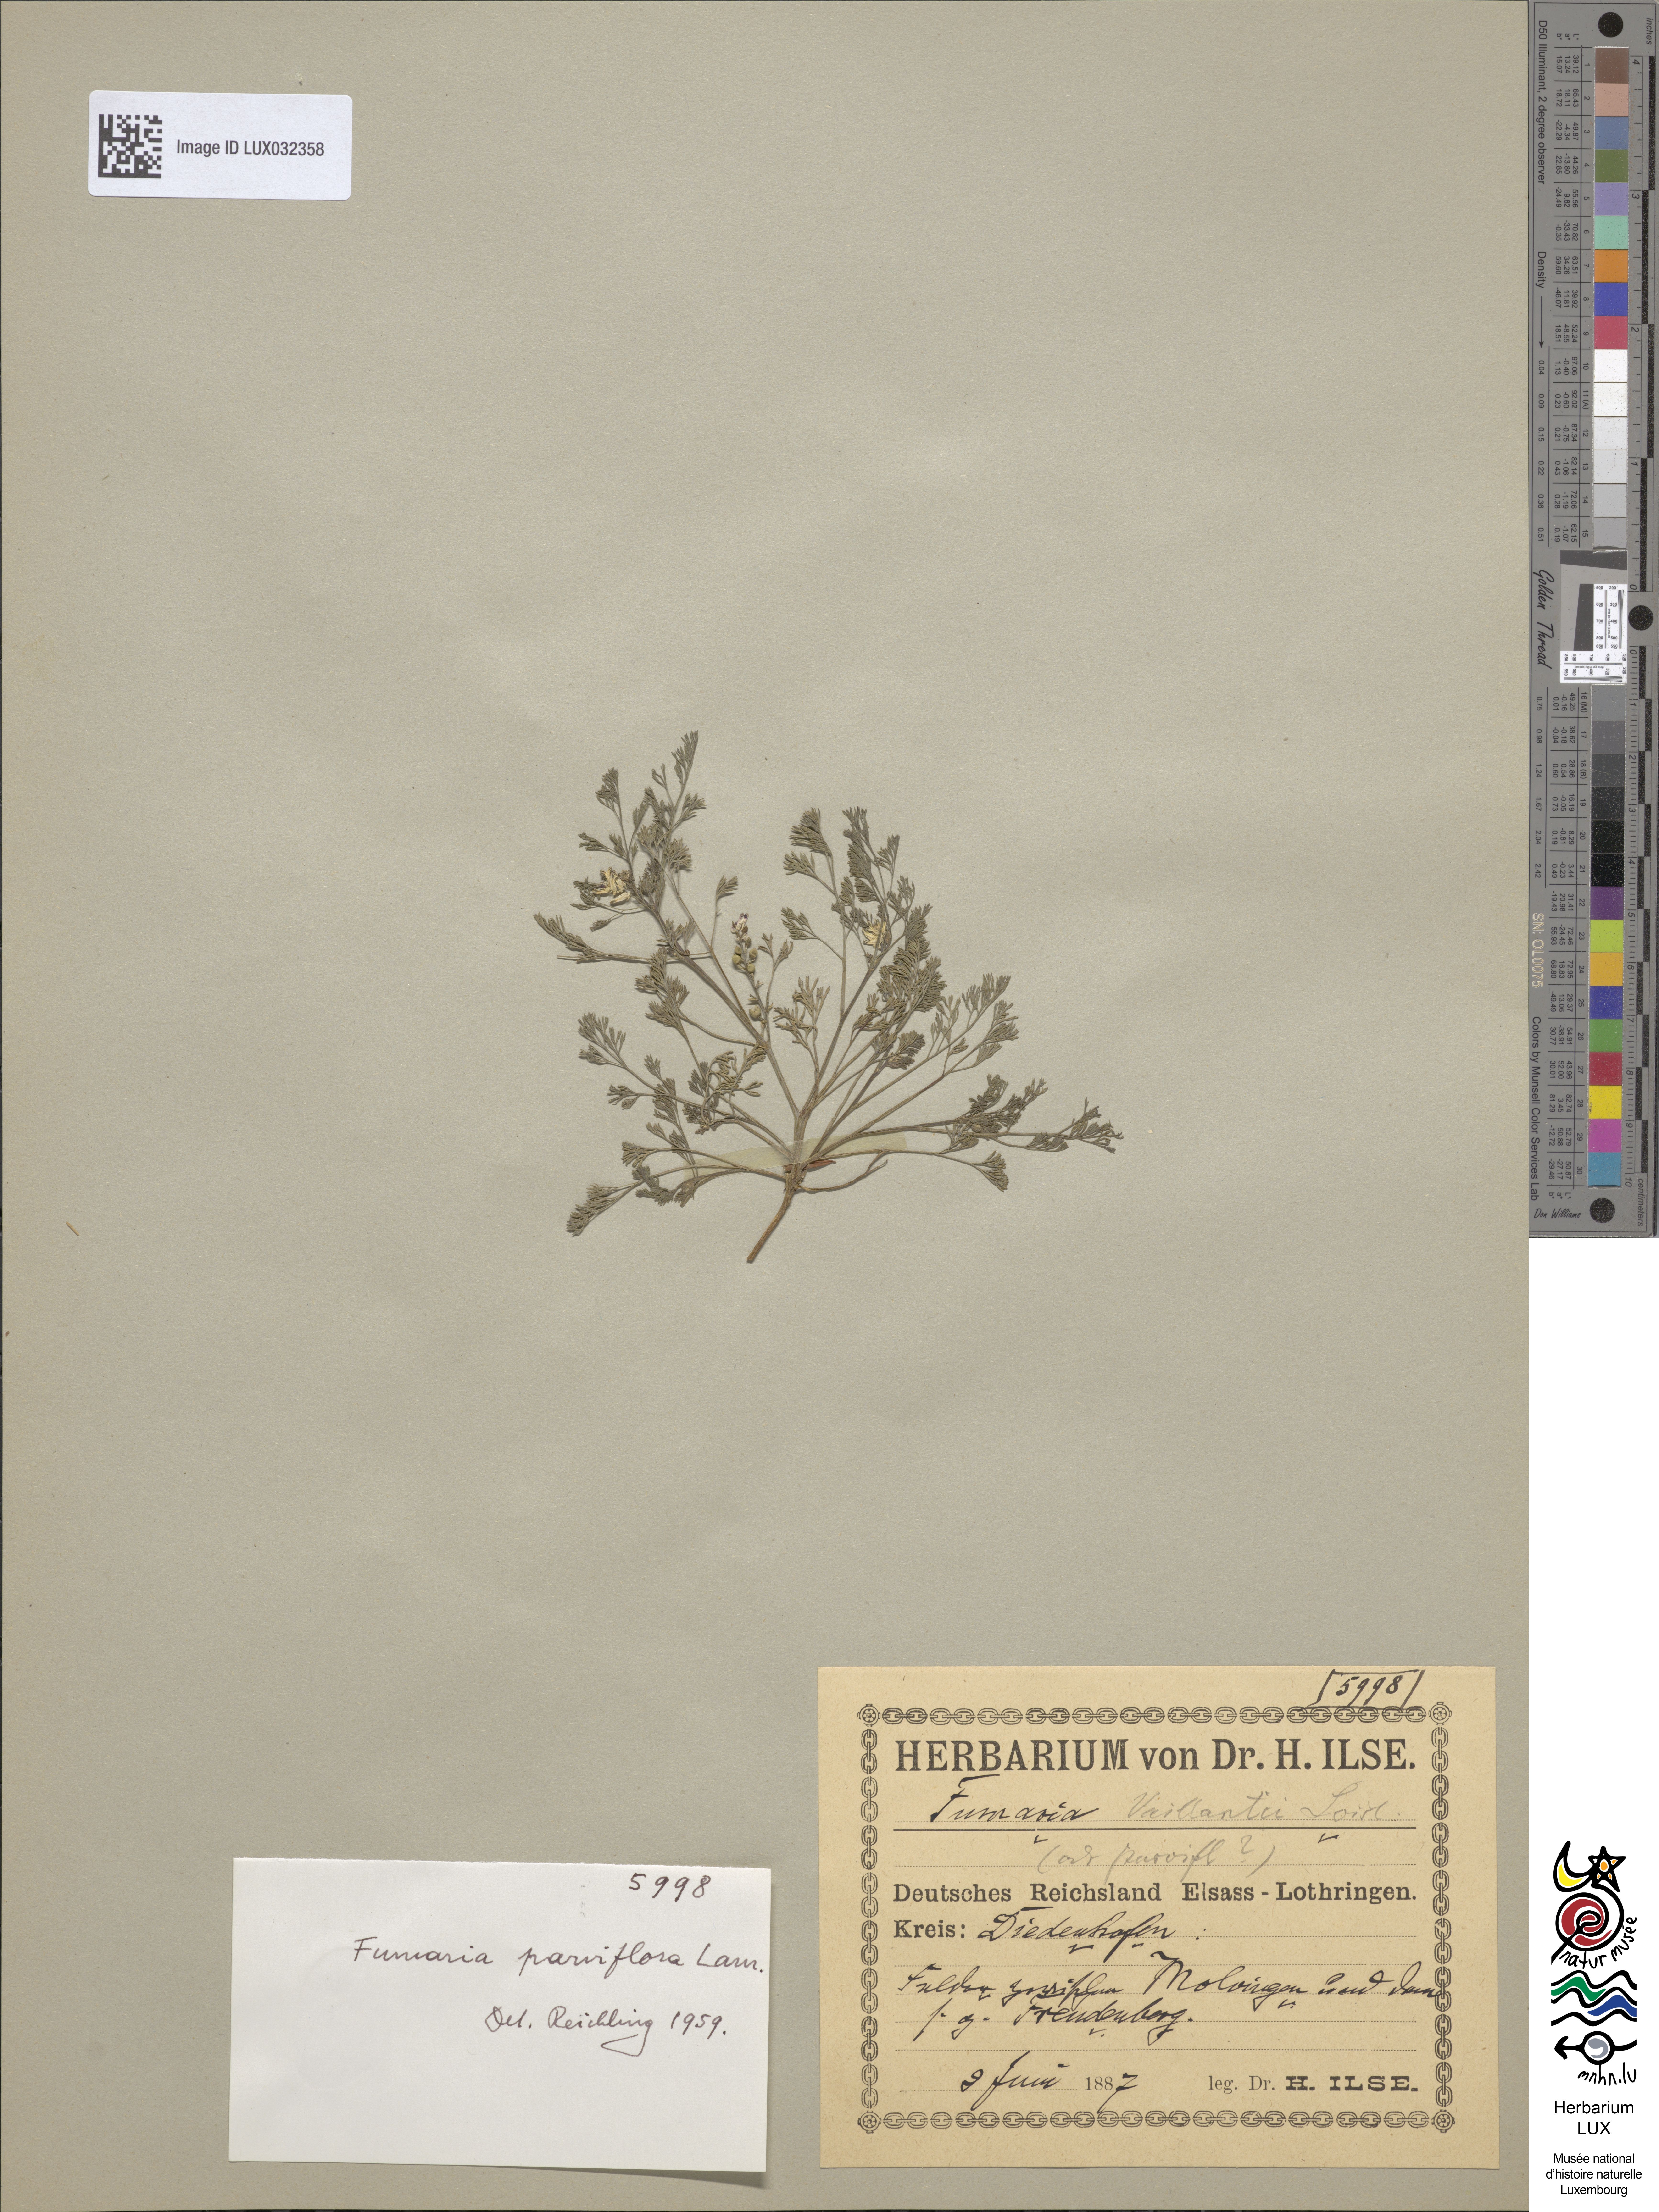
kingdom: Plantae
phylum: Tracheophyta
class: Magnoliopsida
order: Ranunculales
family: Papaveraceae
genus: Fumaria
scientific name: Fumaria parviflora
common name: Fine-leaved fumitory
